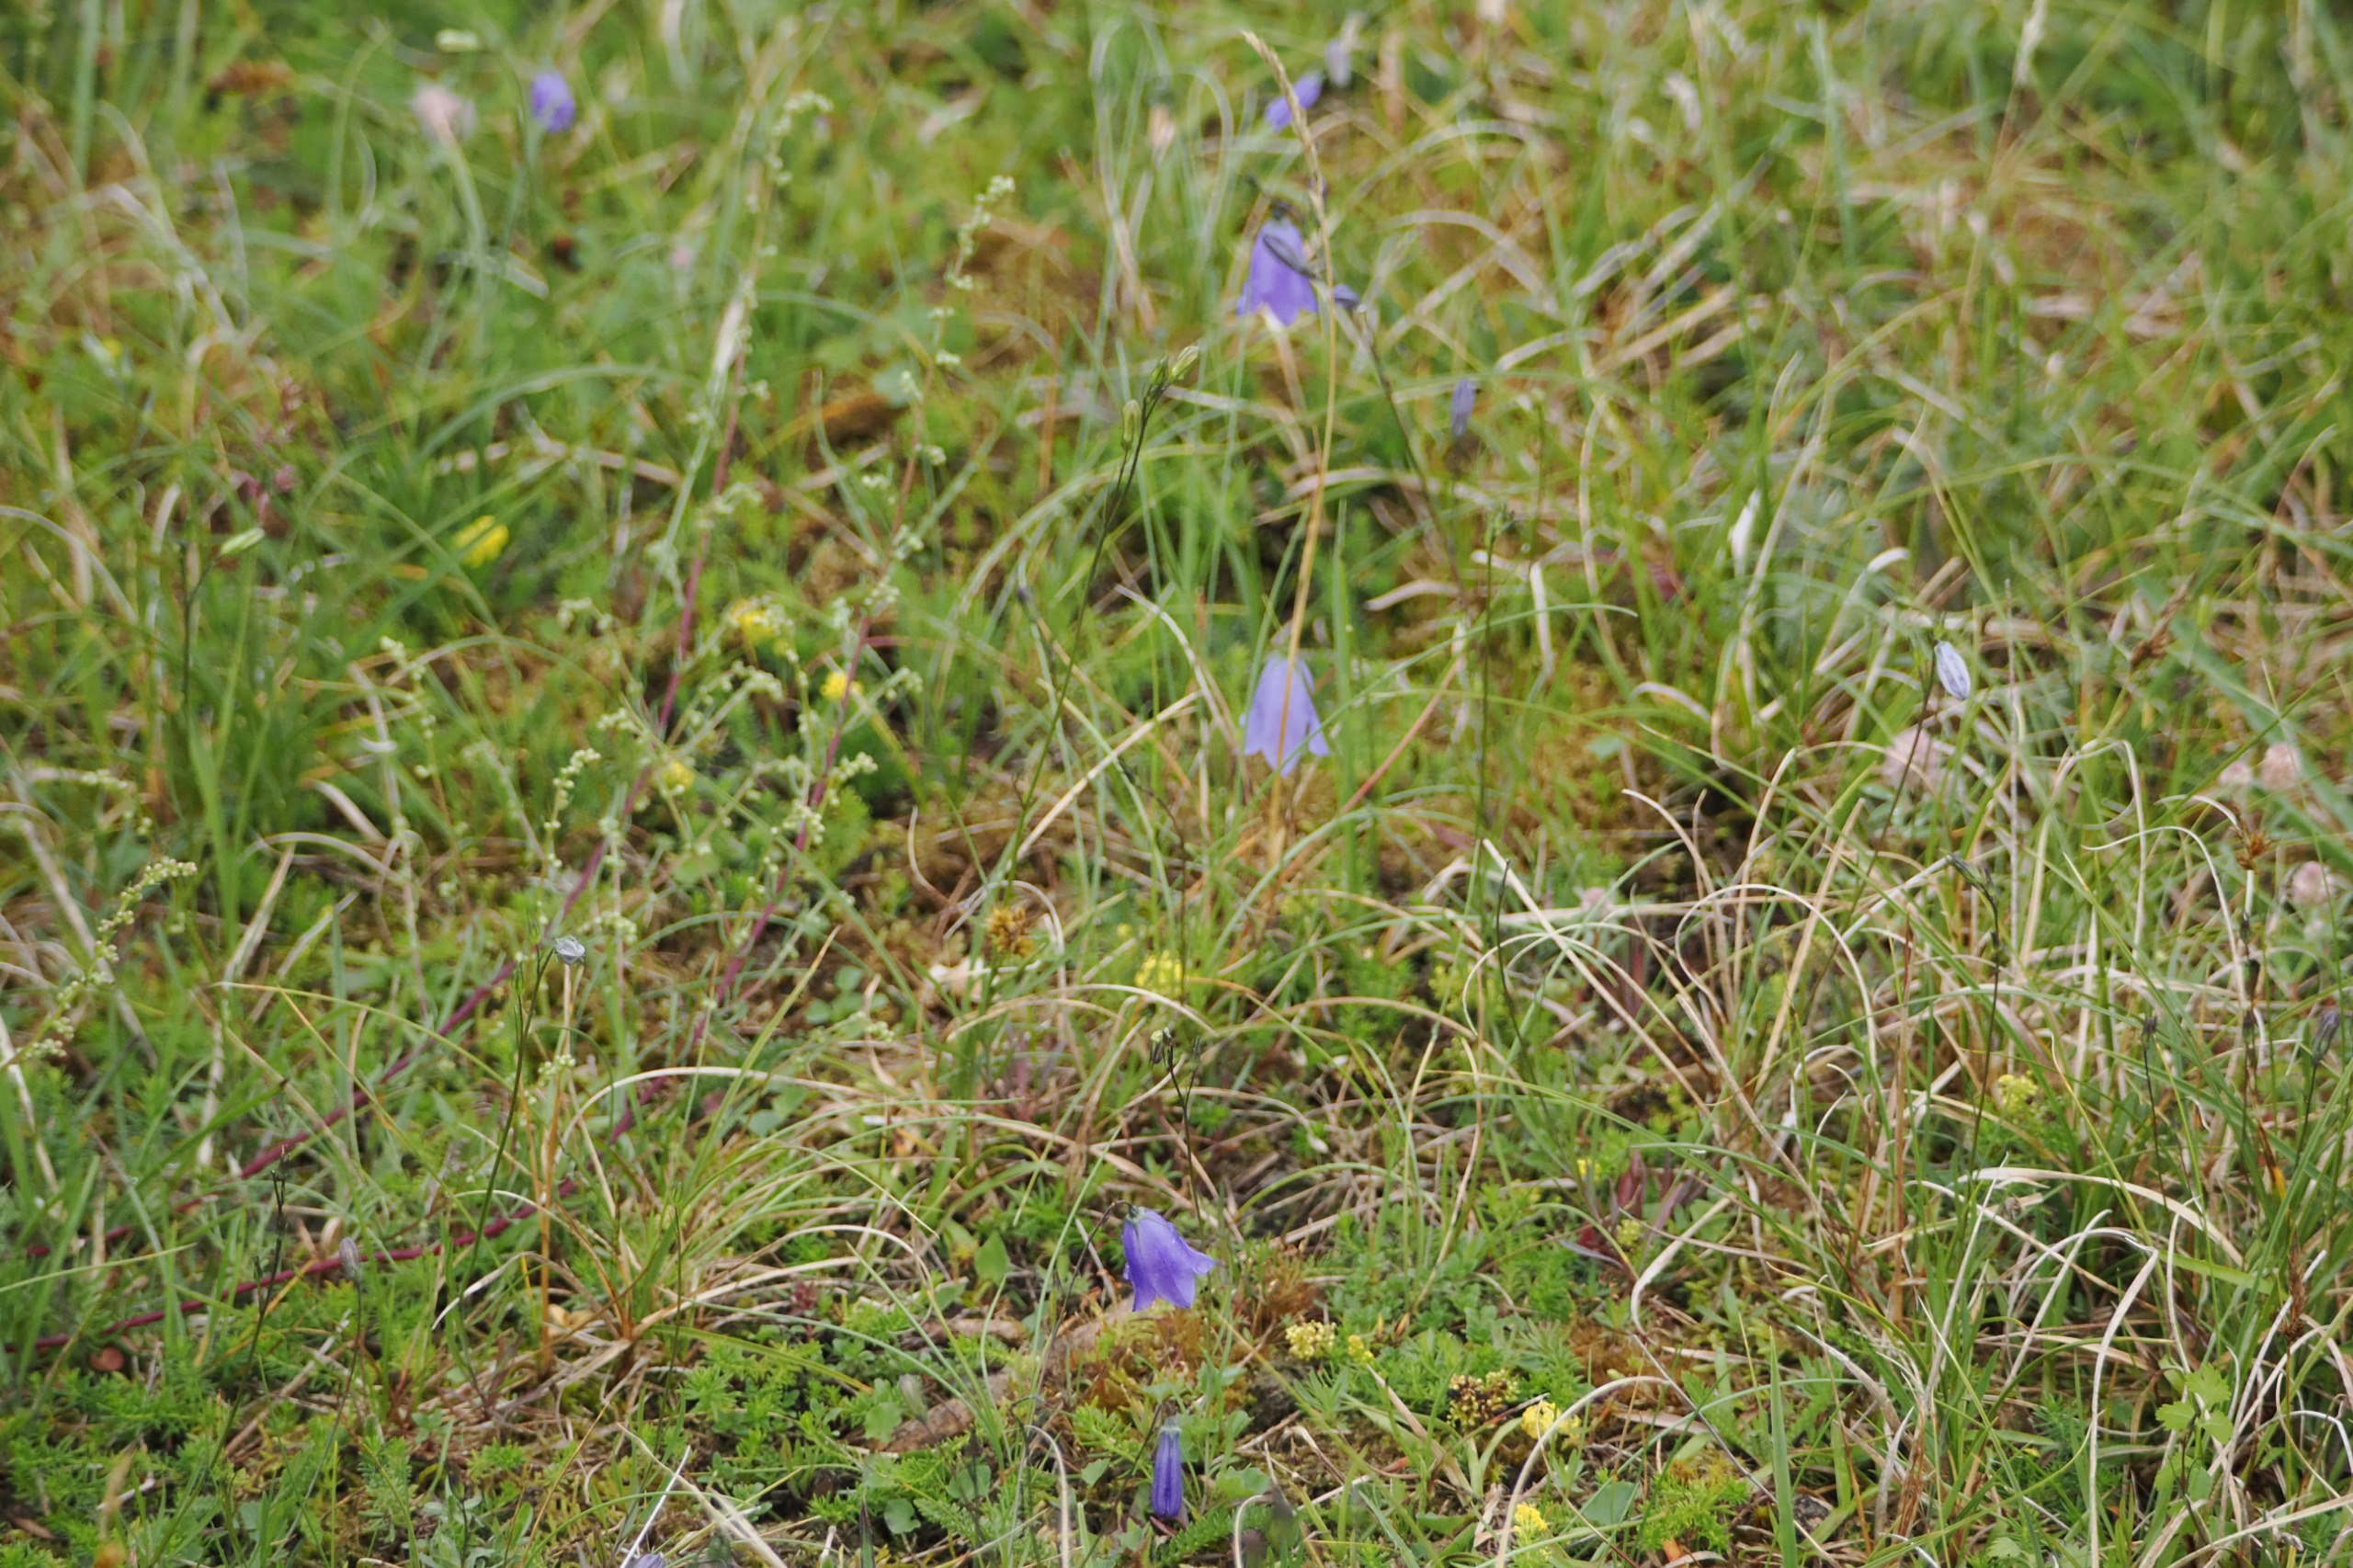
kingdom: Plantae
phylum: Tracheophyta
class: Magnoliopsida
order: Asterales
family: Campanulaceae
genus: Campanula
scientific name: Campanula rotundifolia
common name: Liden klokke
